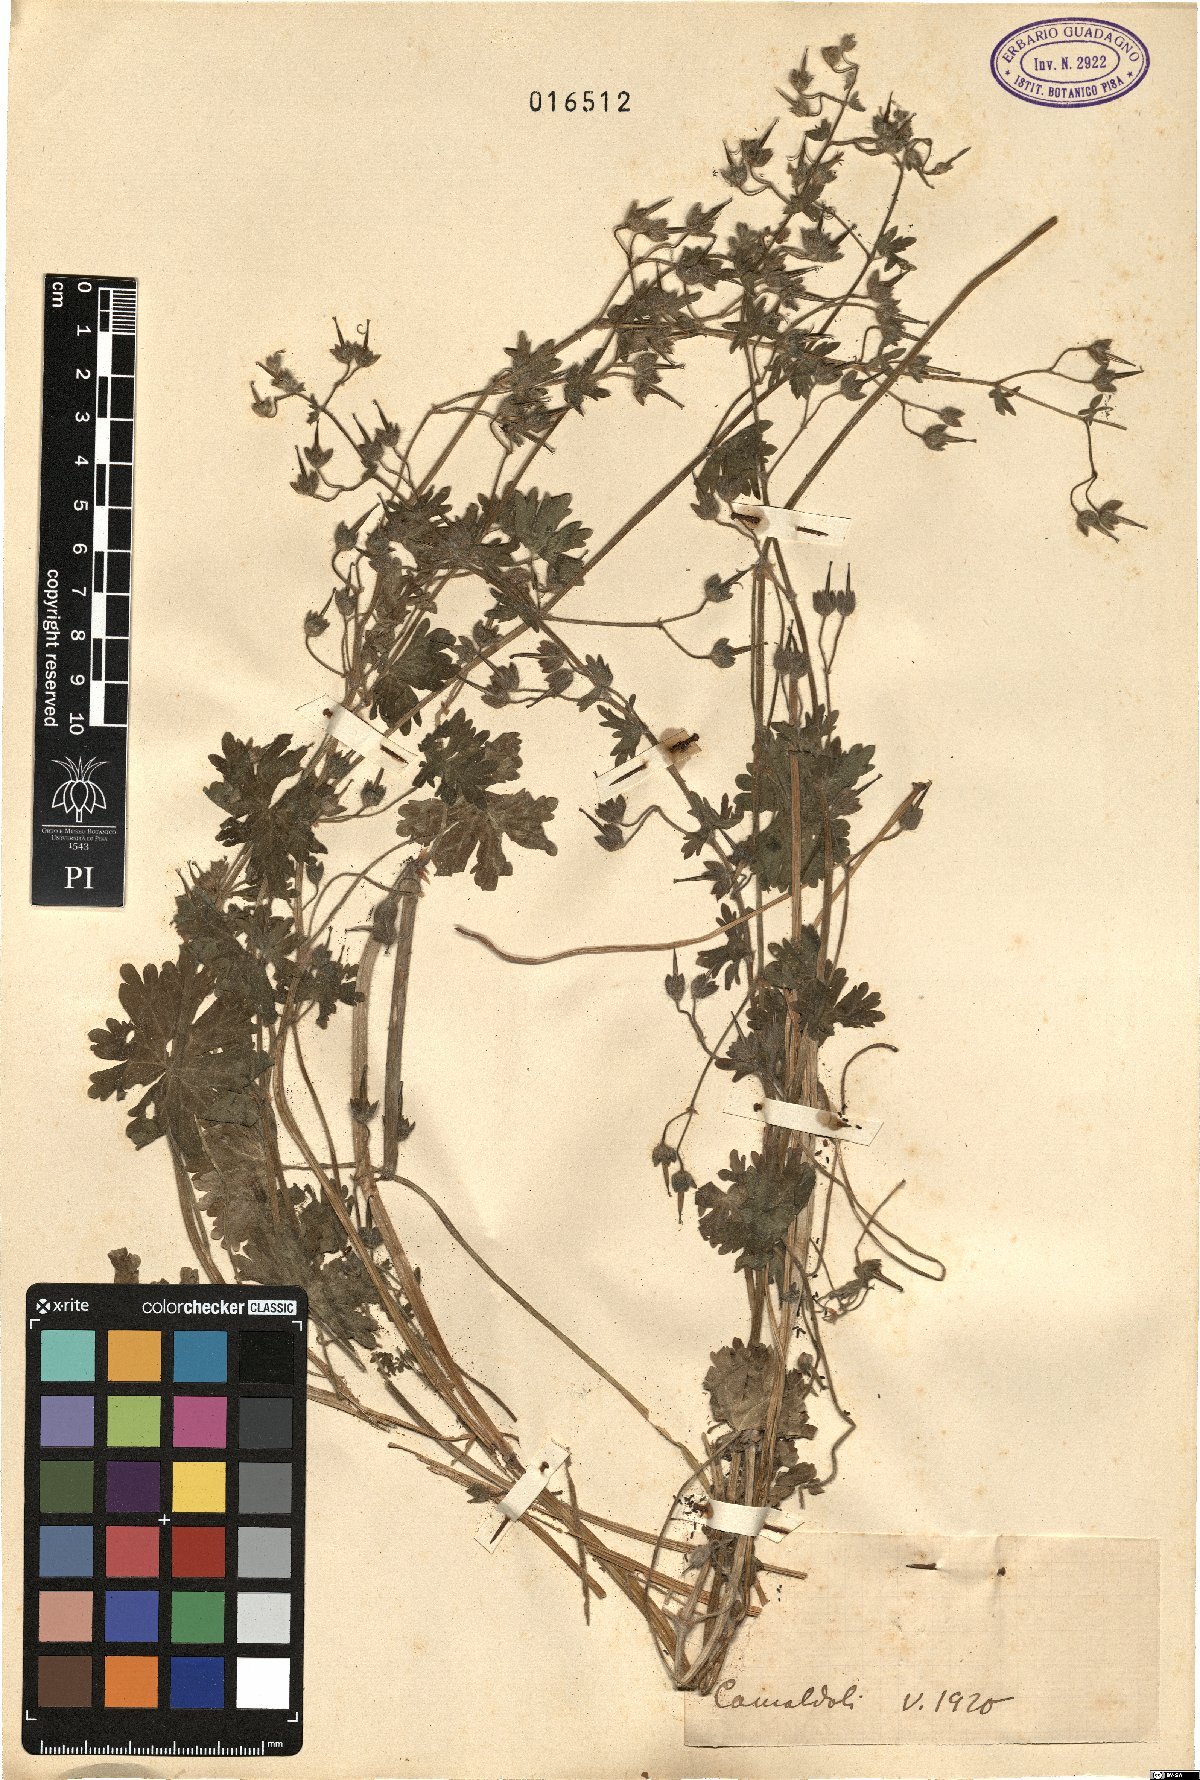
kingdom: Plantae
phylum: Tracheophyta
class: Magnoliopsida
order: Geraniales
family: Geraniaceae
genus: Geranium
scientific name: Geranium
